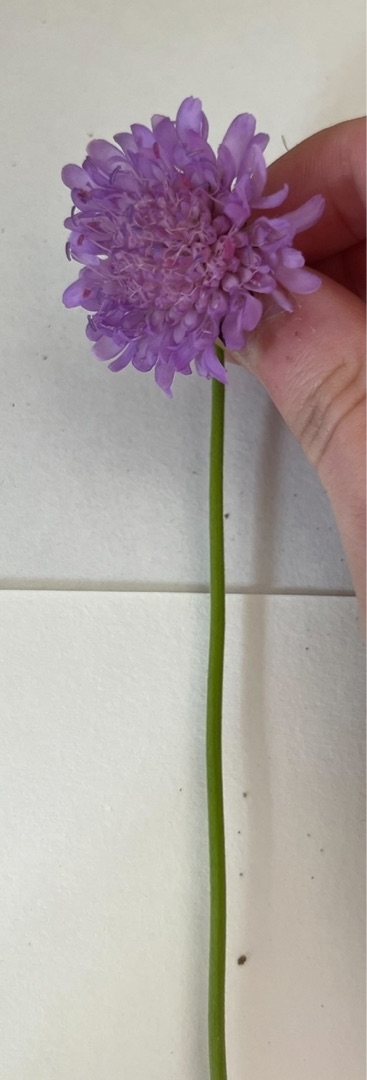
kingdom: Plantae
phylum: Tracheophyta
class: Magnoliopsida
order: Dipsacales
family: Caprifoliaceae
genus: Knautia
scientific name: Knautia arvensis
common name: Blåhat
